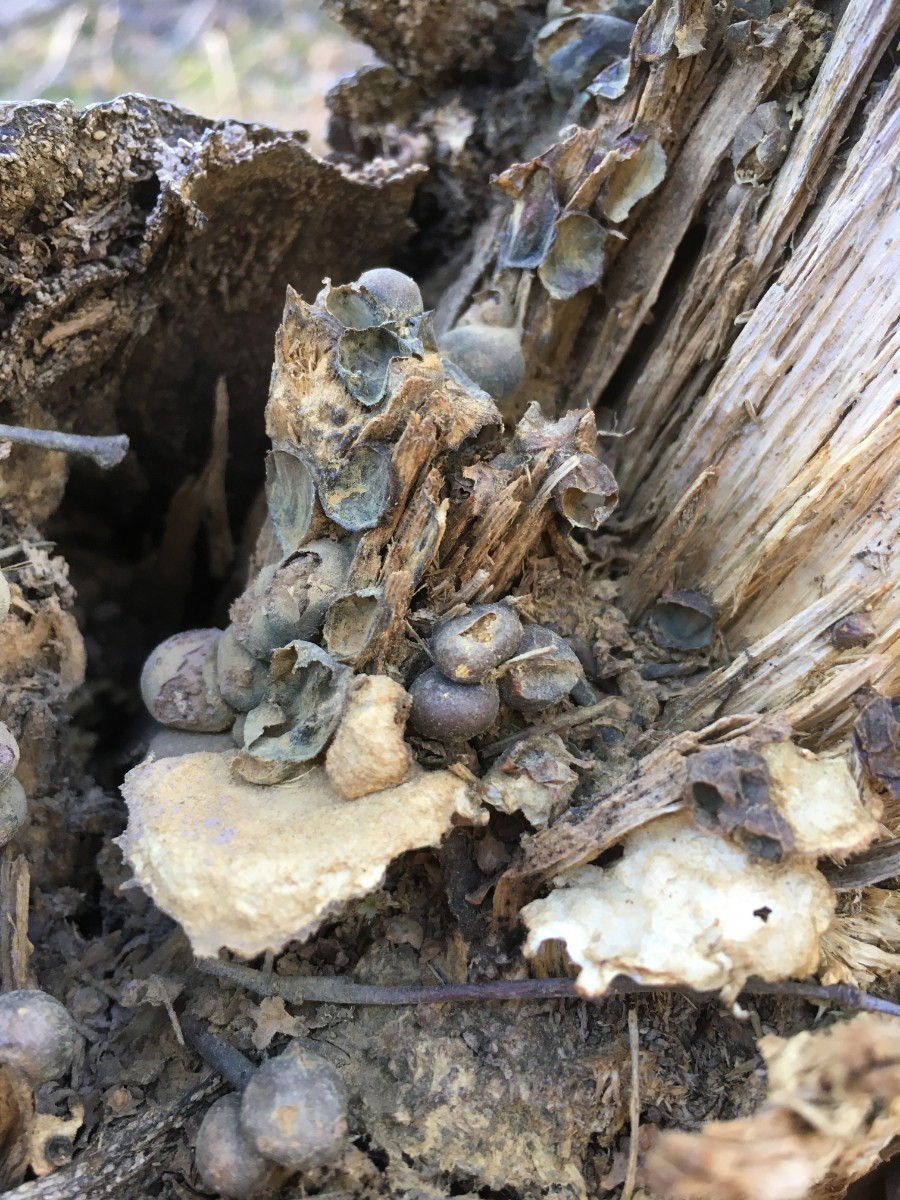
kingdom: Protozoa
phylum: Mycetozoa
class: Myxomycetes
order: Cribrariales
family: Tubiferaceae
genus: Lycogala
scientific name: Lycogala epidendrum
